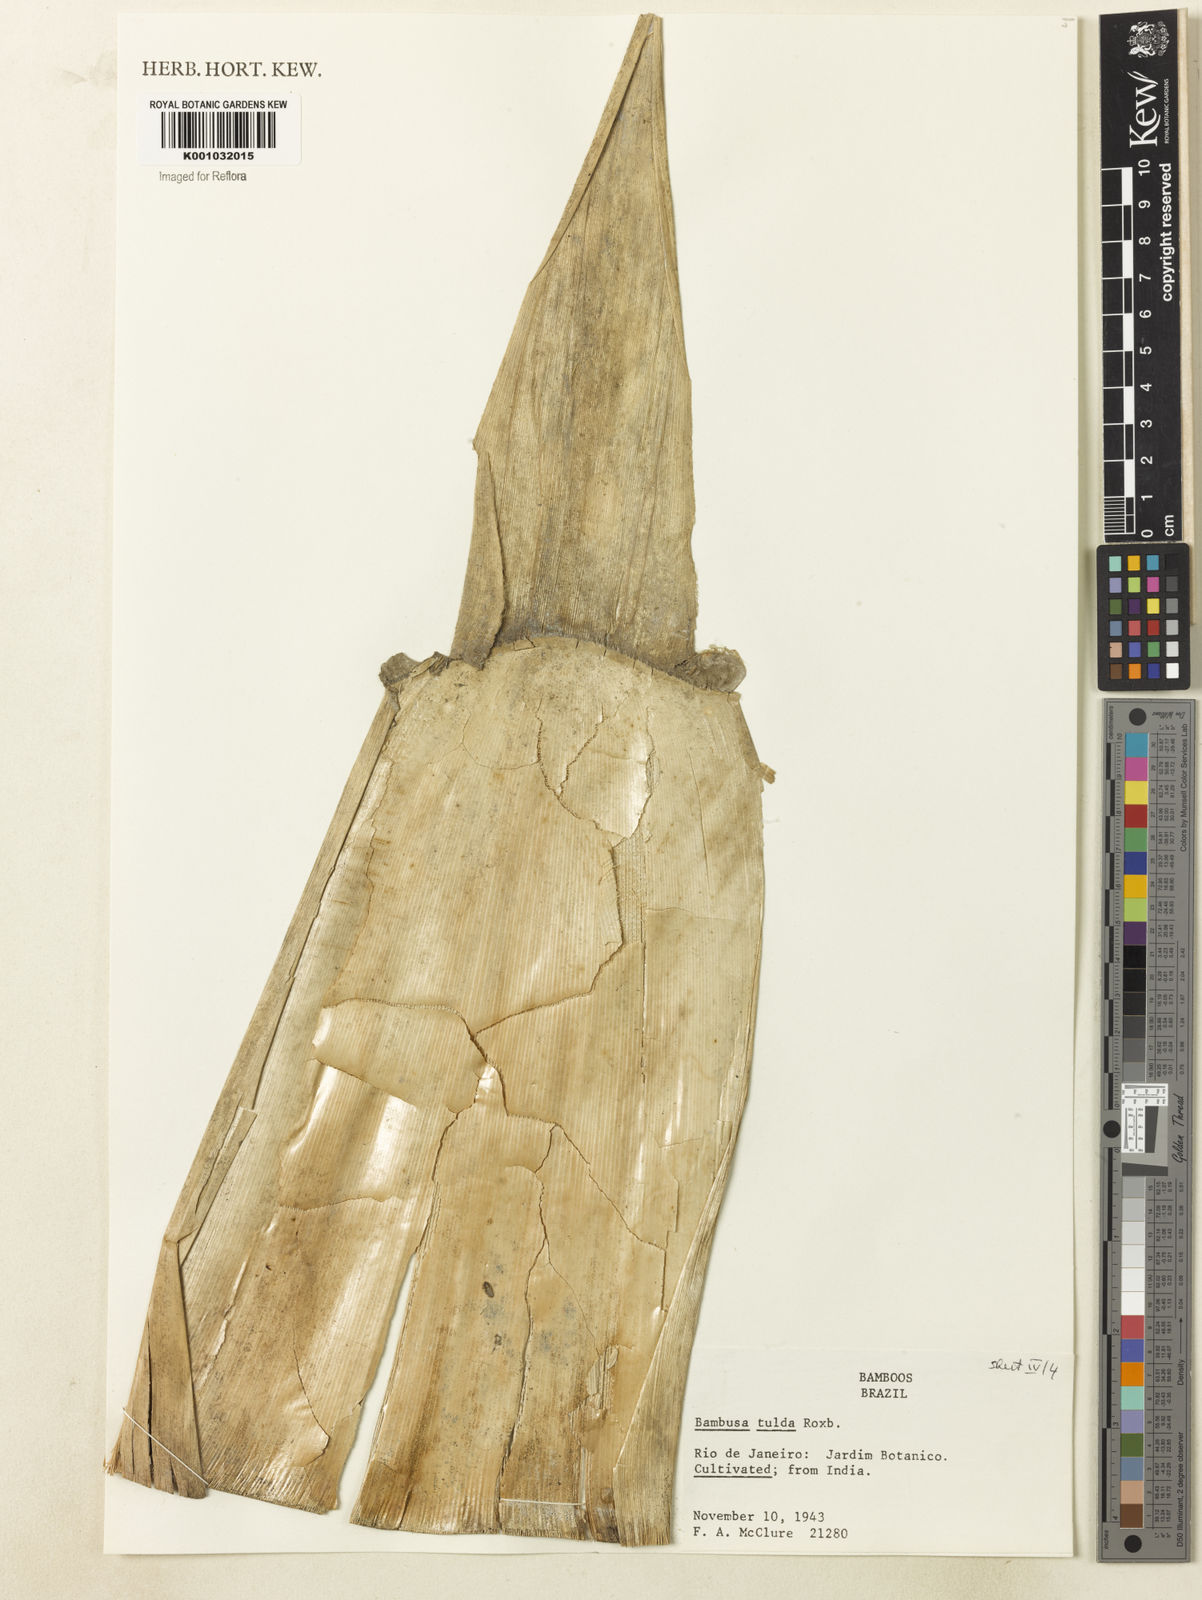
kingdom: Plantae
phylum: Tracheophyta
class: Liliopsida
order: Poales
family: Poaceae
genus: Bambusa
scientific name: Bambusa tulda
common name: Bengal bamboo
